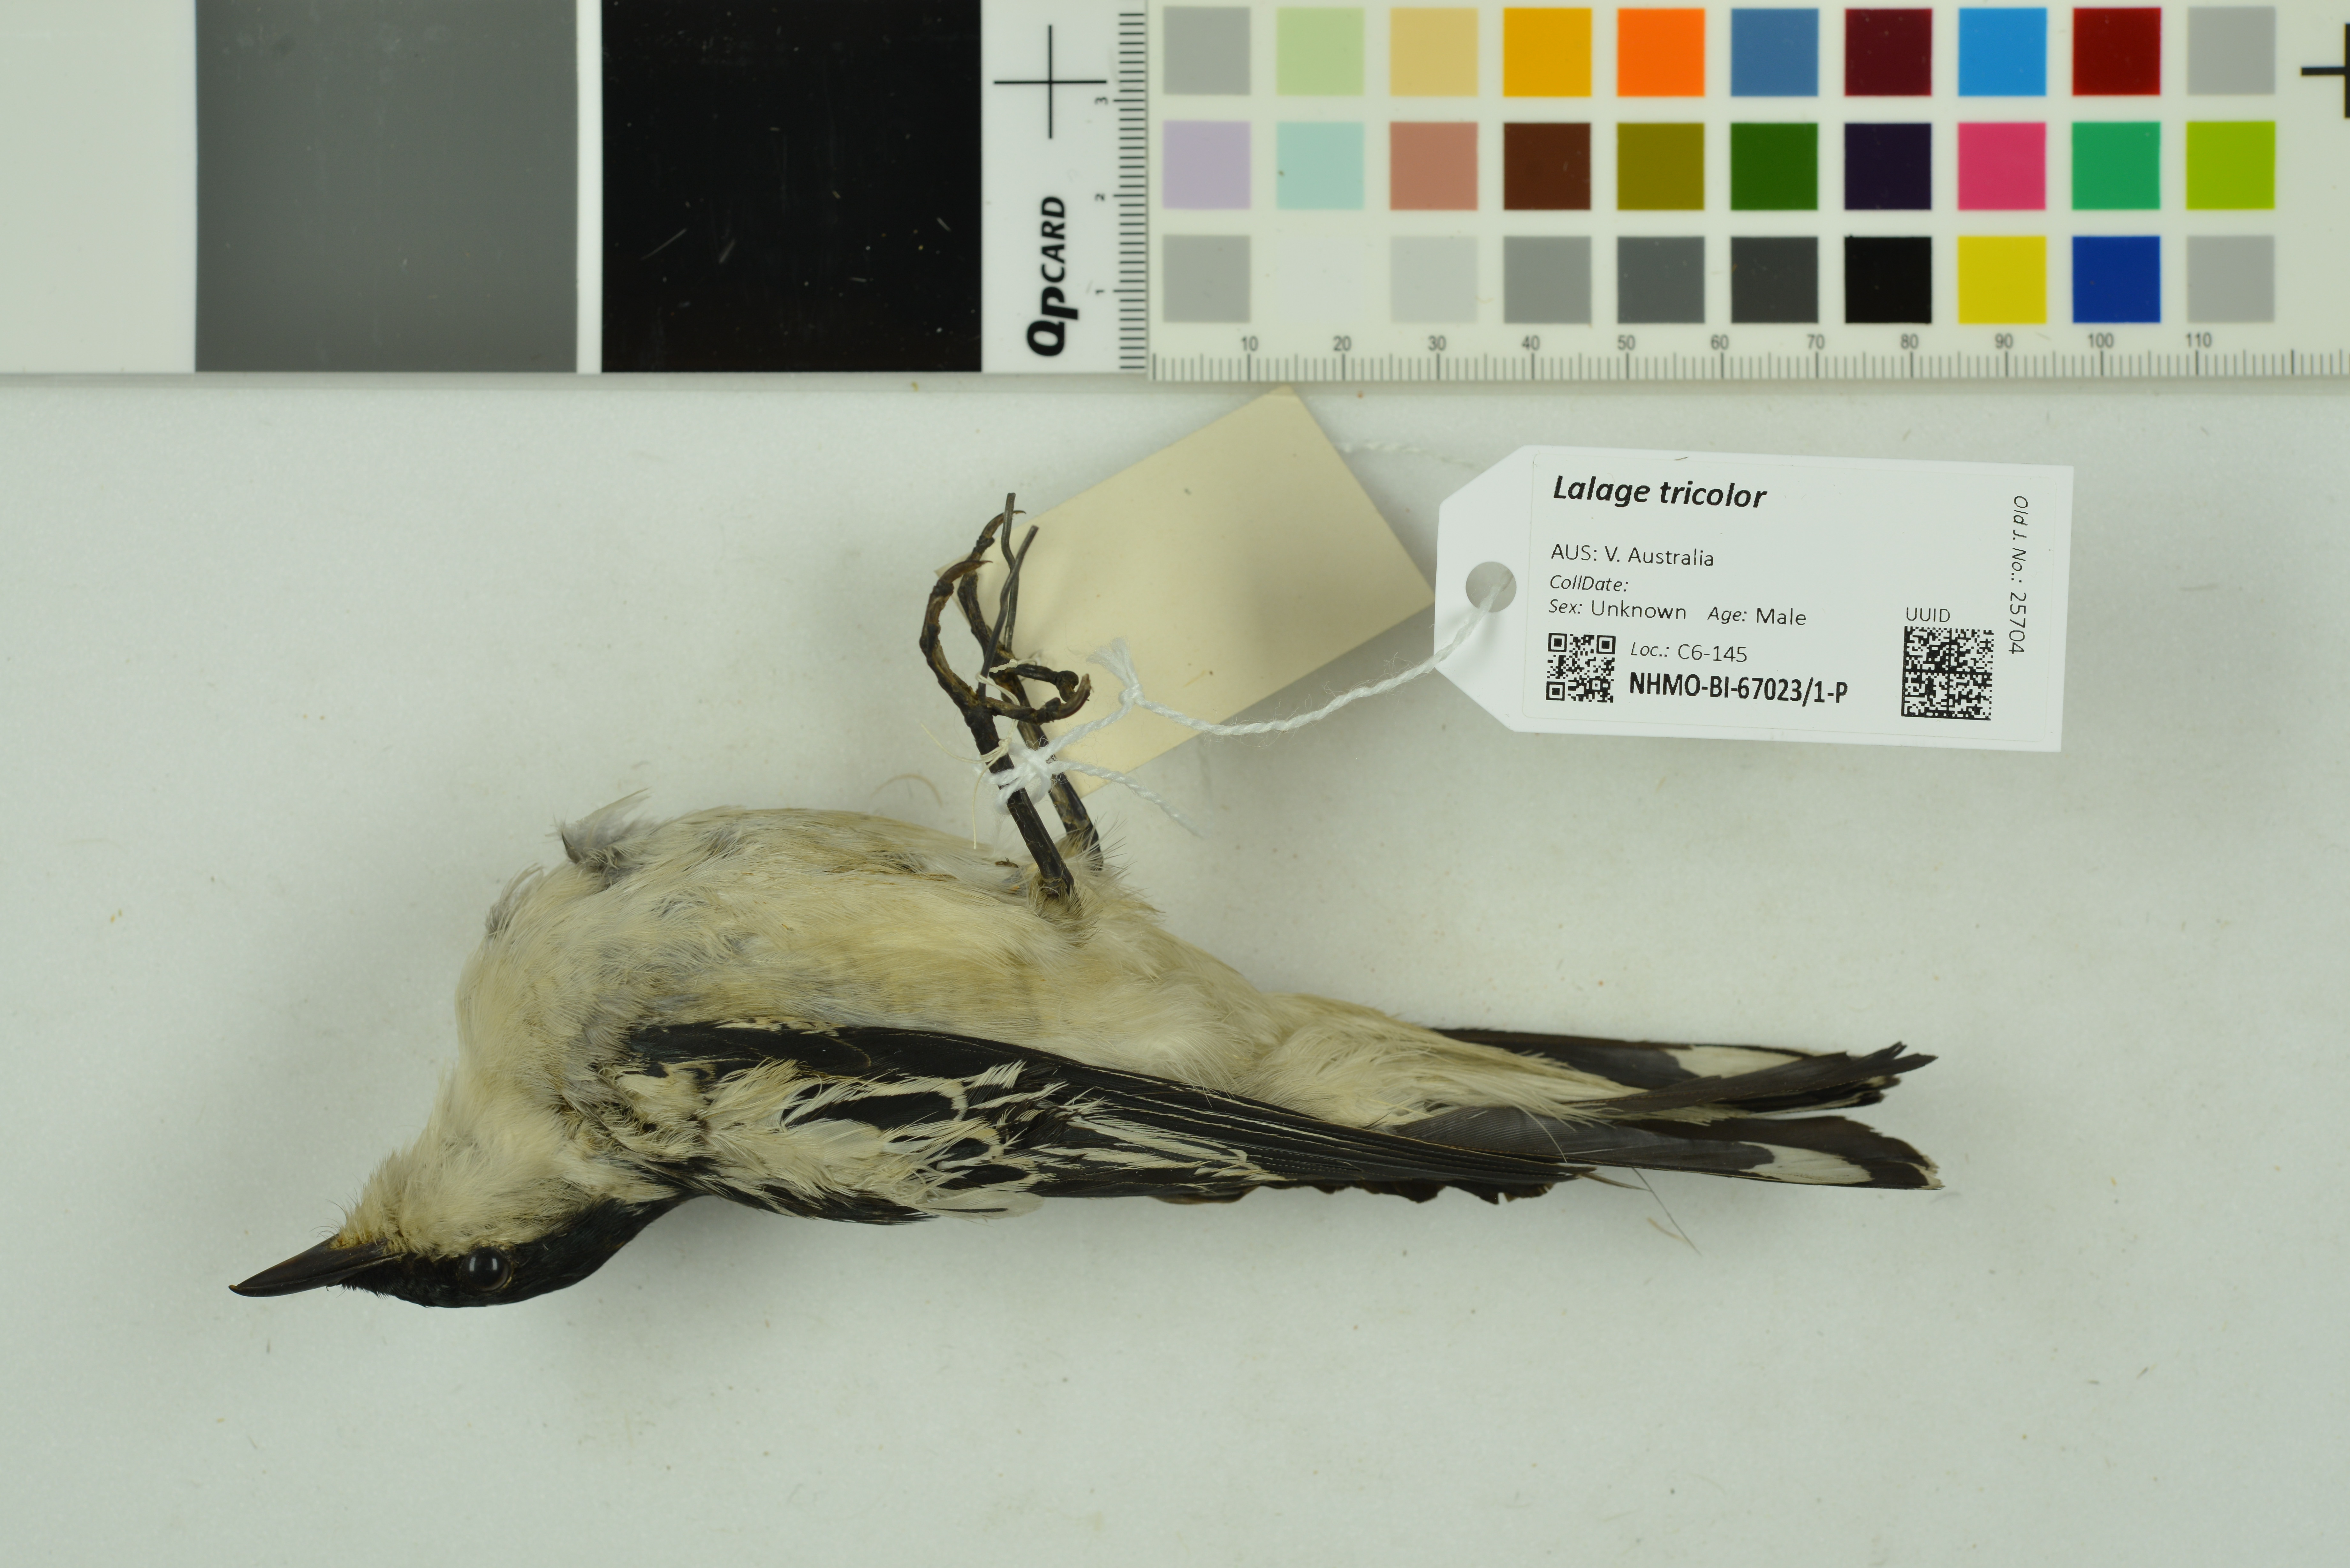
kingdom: Animalia
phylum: Chordata
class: Aves
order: Passeriformes
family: Campephagidae
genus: Lalage
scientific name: Lalage tricolor
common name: White-winged triller
